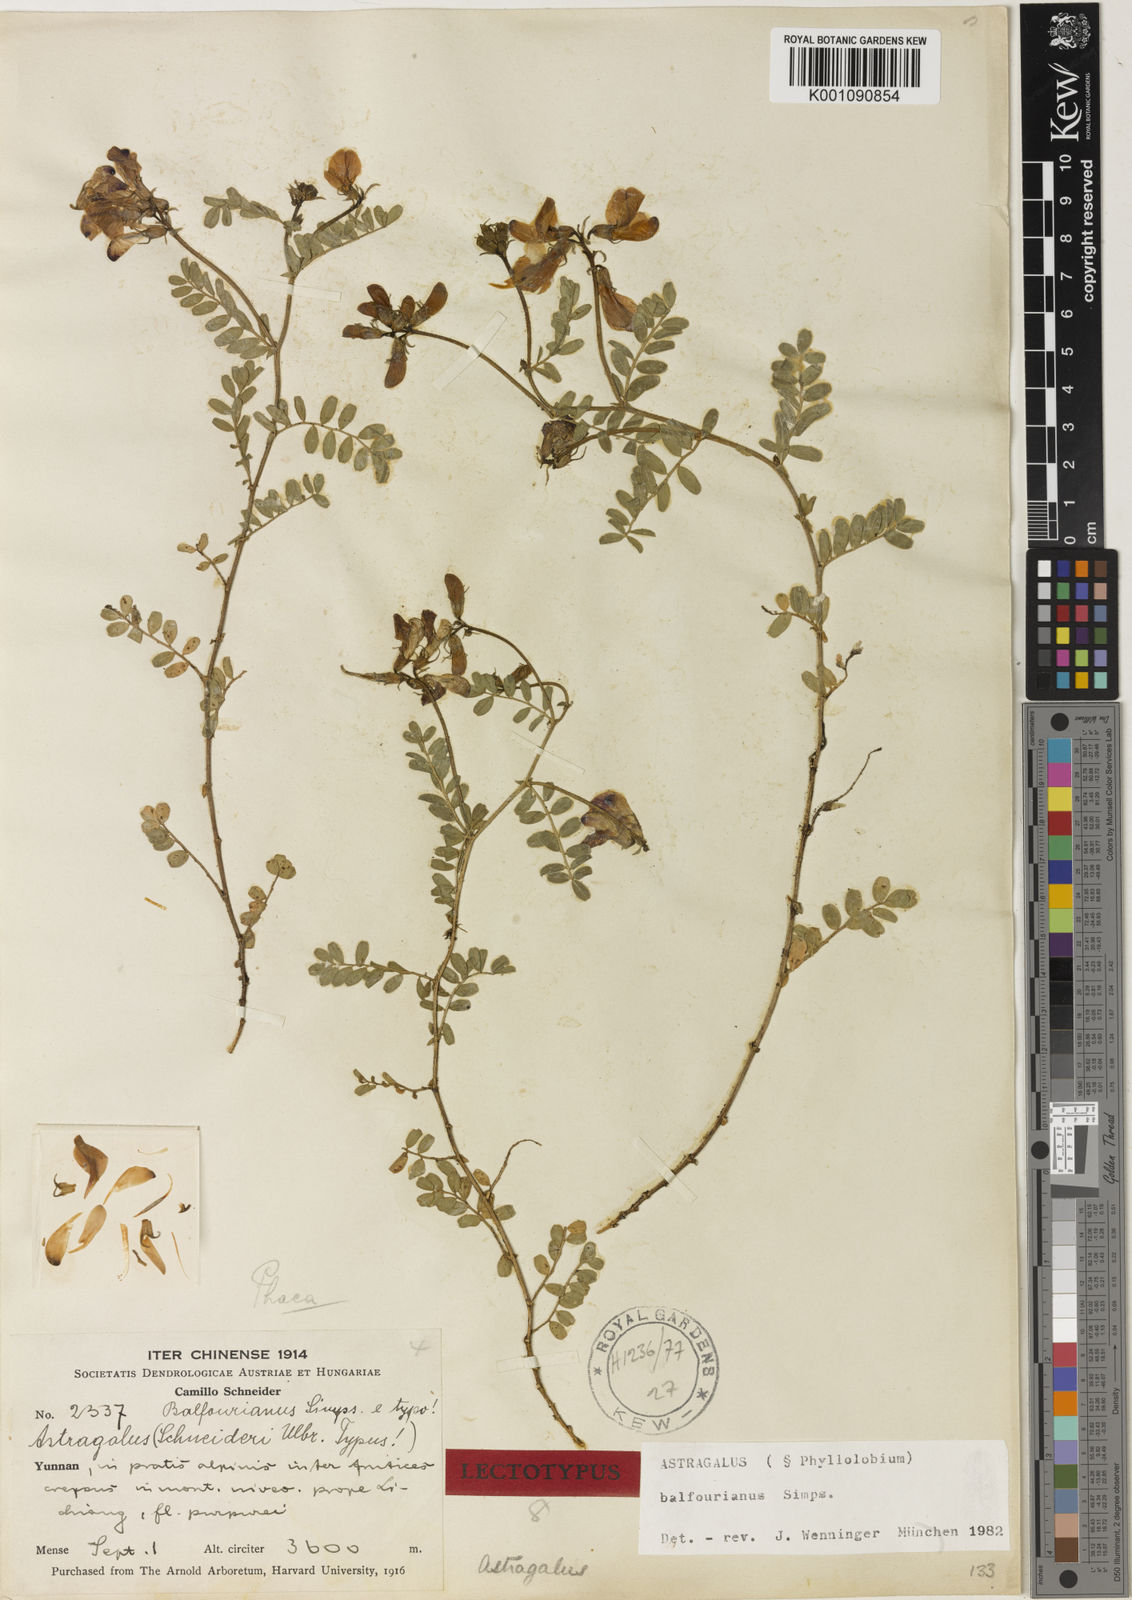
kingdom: Plantae
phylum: Tracheophyta
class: Magnoliopsida
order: Fabales
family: Fabaceae
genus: Astragalus
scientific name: Astragalus
